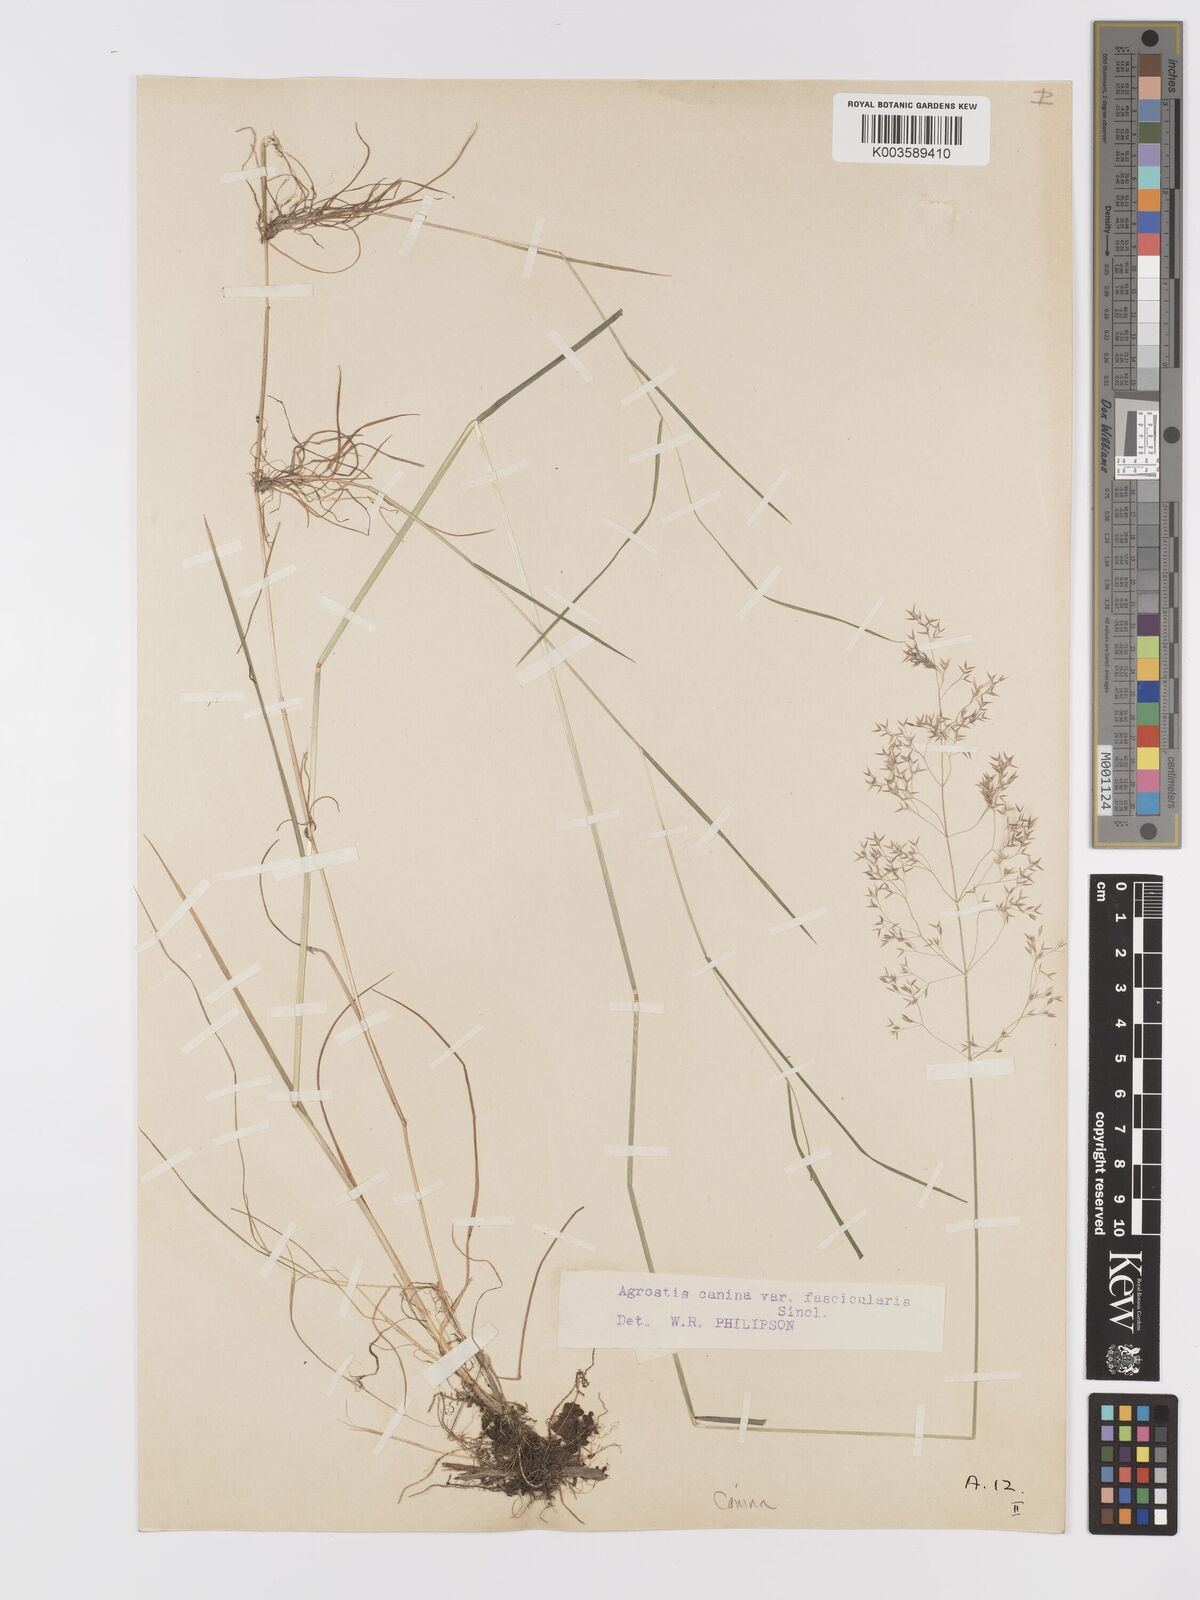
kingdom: Plantae
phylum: Tracheophyta
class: Liliopsida
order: Poales
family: Poaceae
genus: Agrostis
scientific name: Agrostis canina
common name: Velvet bent
